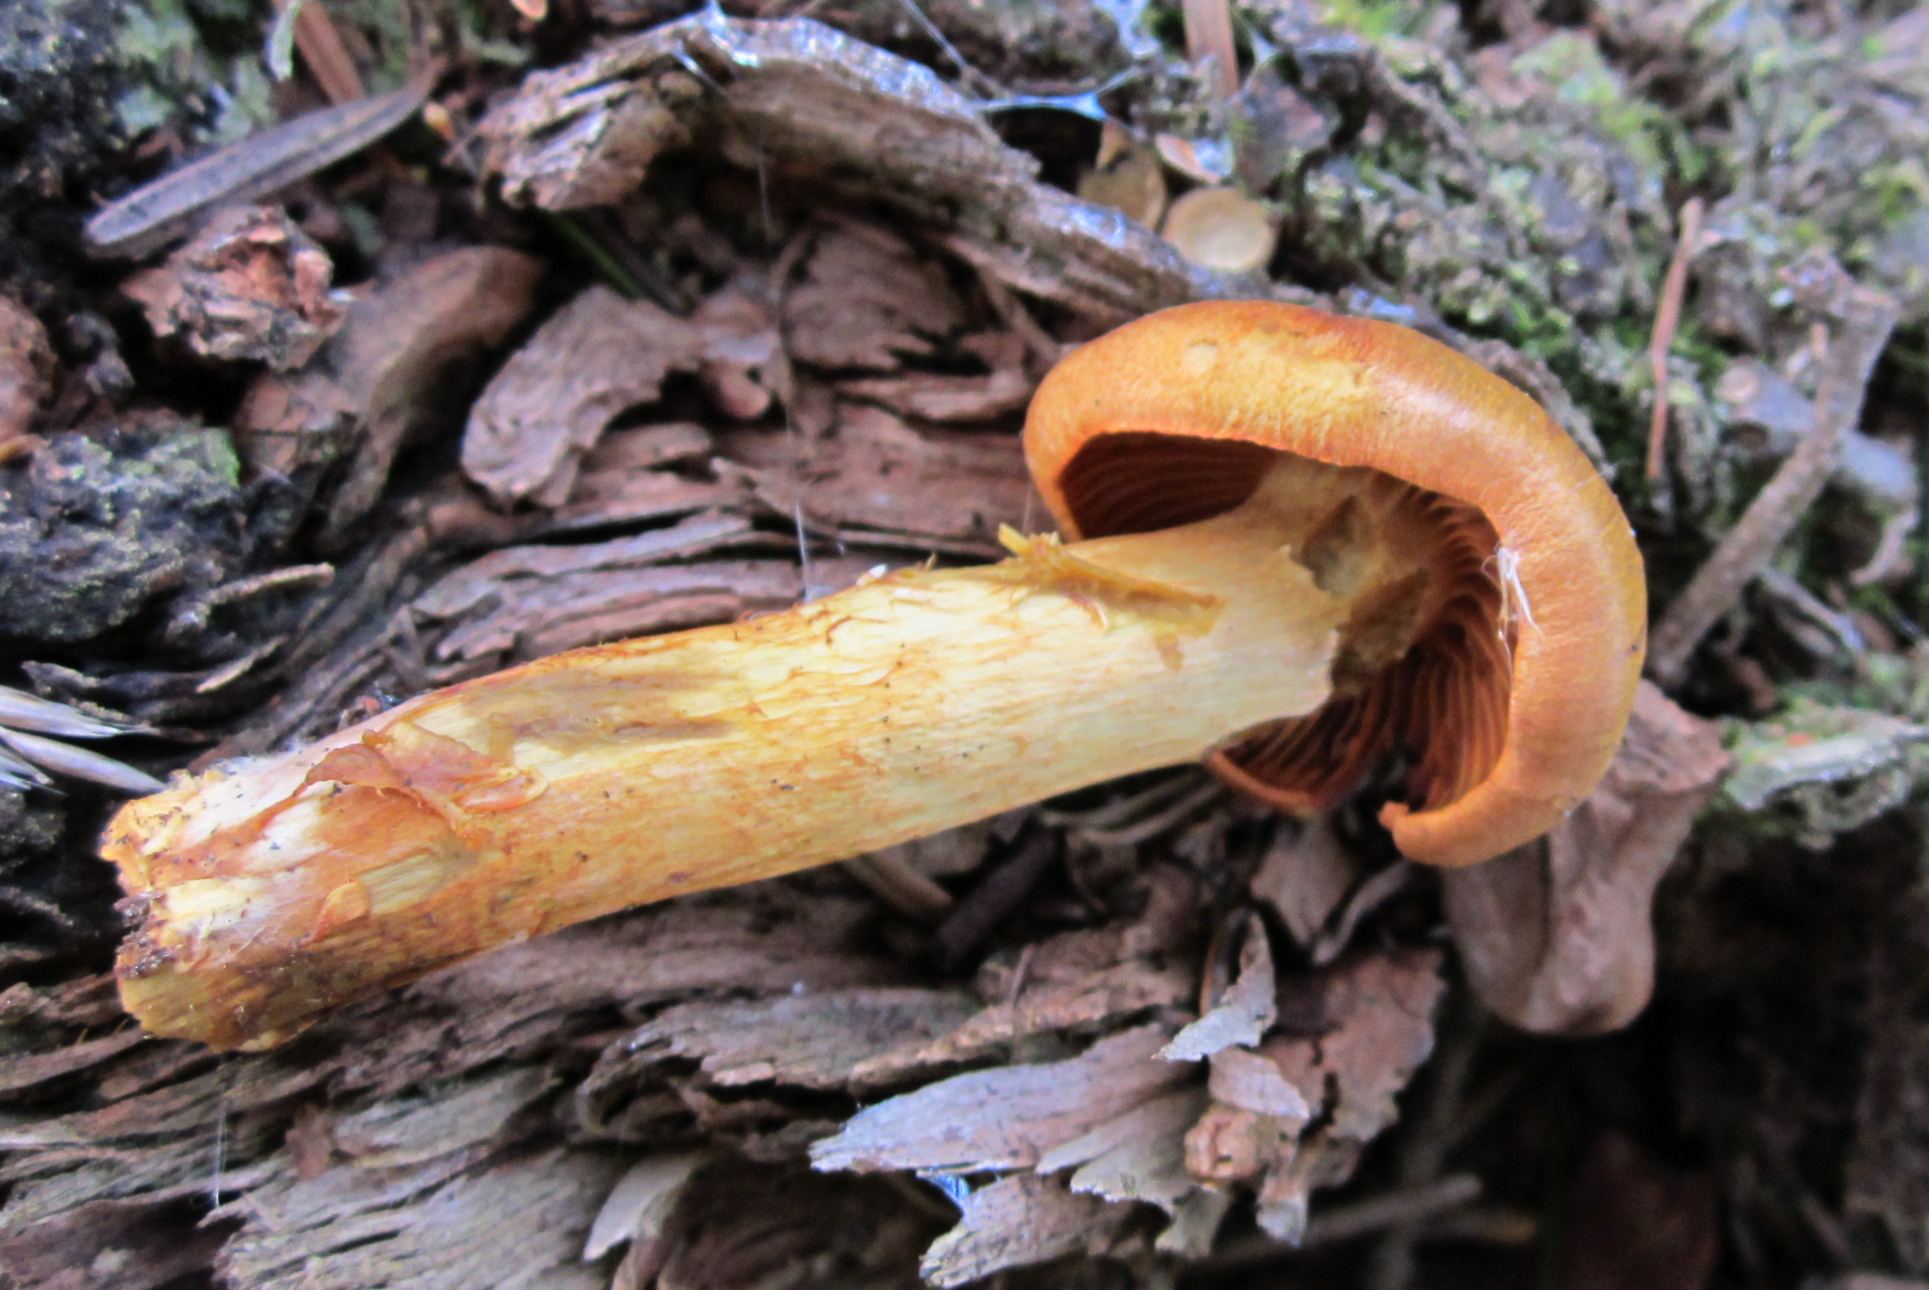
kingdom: Fungi
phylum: Basidiomycota
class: Agaricomycetes
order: Agaricales
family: Cortinariaceae
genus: Cortinarius
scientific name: Cortinarius malicorius
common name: grønkødet slørhat
